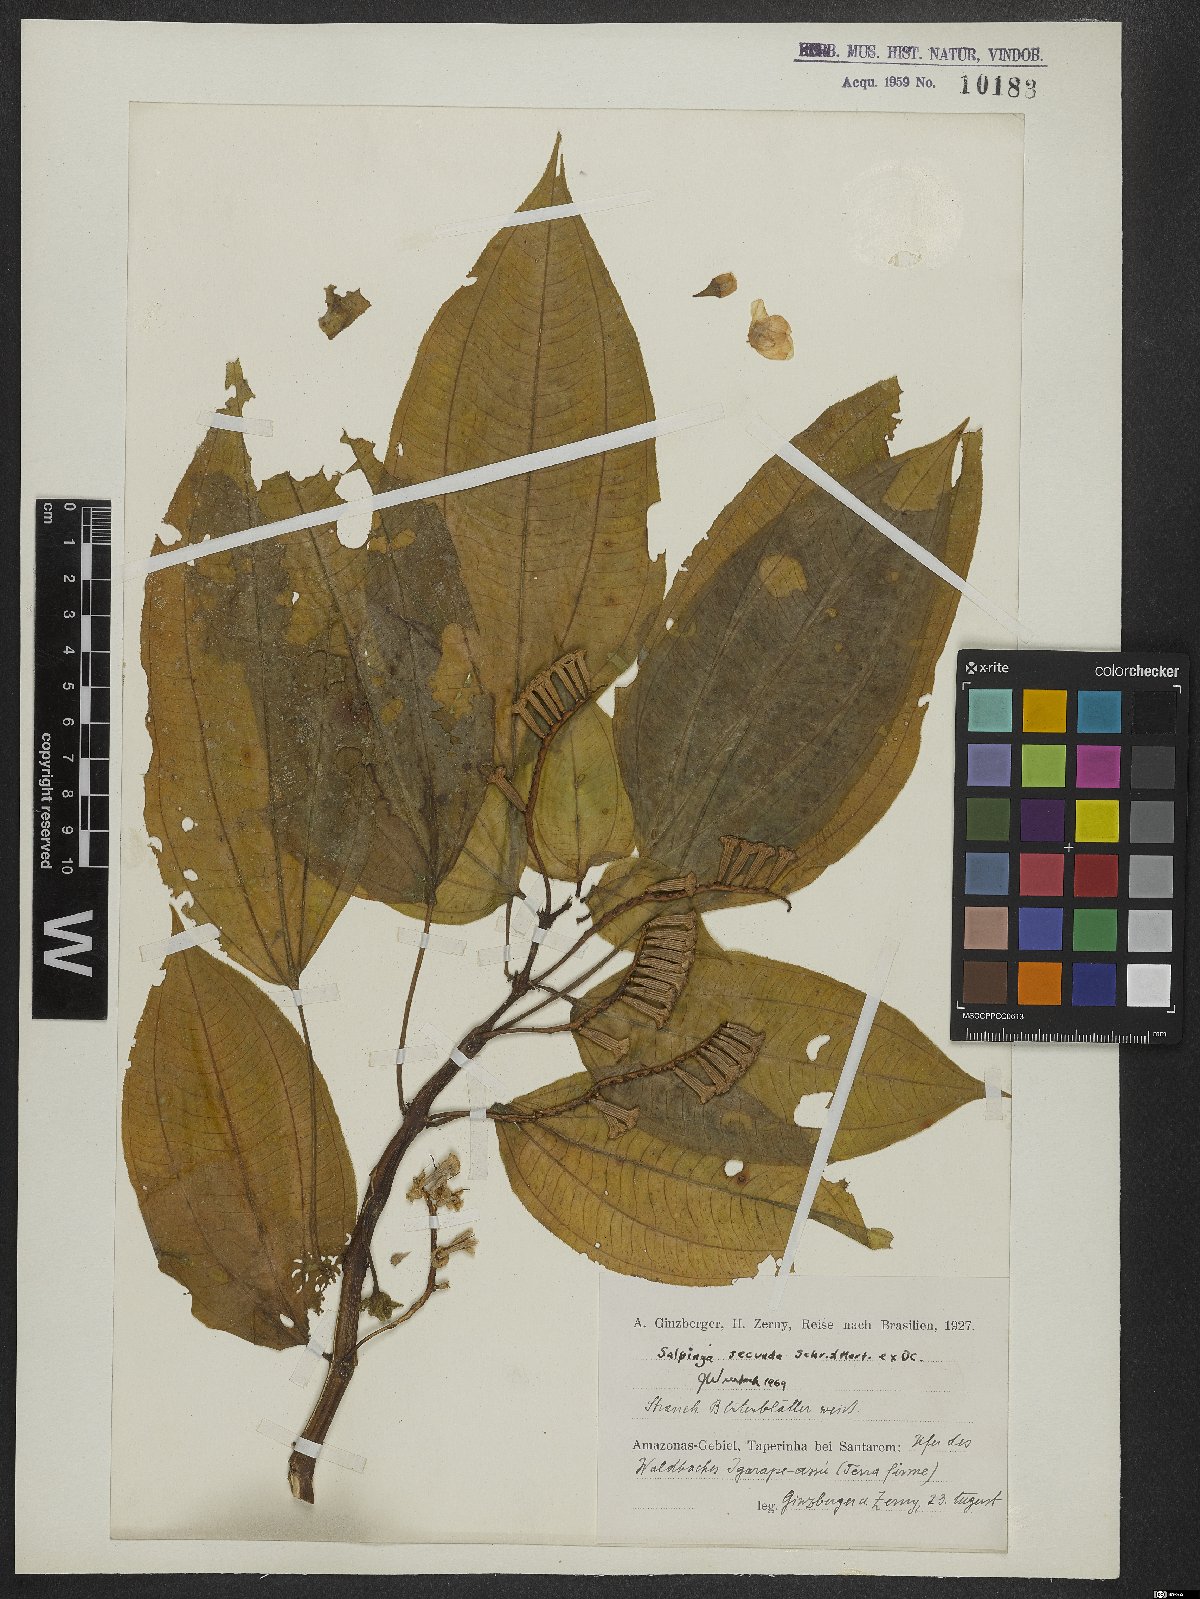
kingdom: Plantae
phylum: Tracheophyta
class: Magnoliopsida
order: Myrtales
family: Melastomataceae
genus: Salpinga
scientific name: Salpinga secunda
